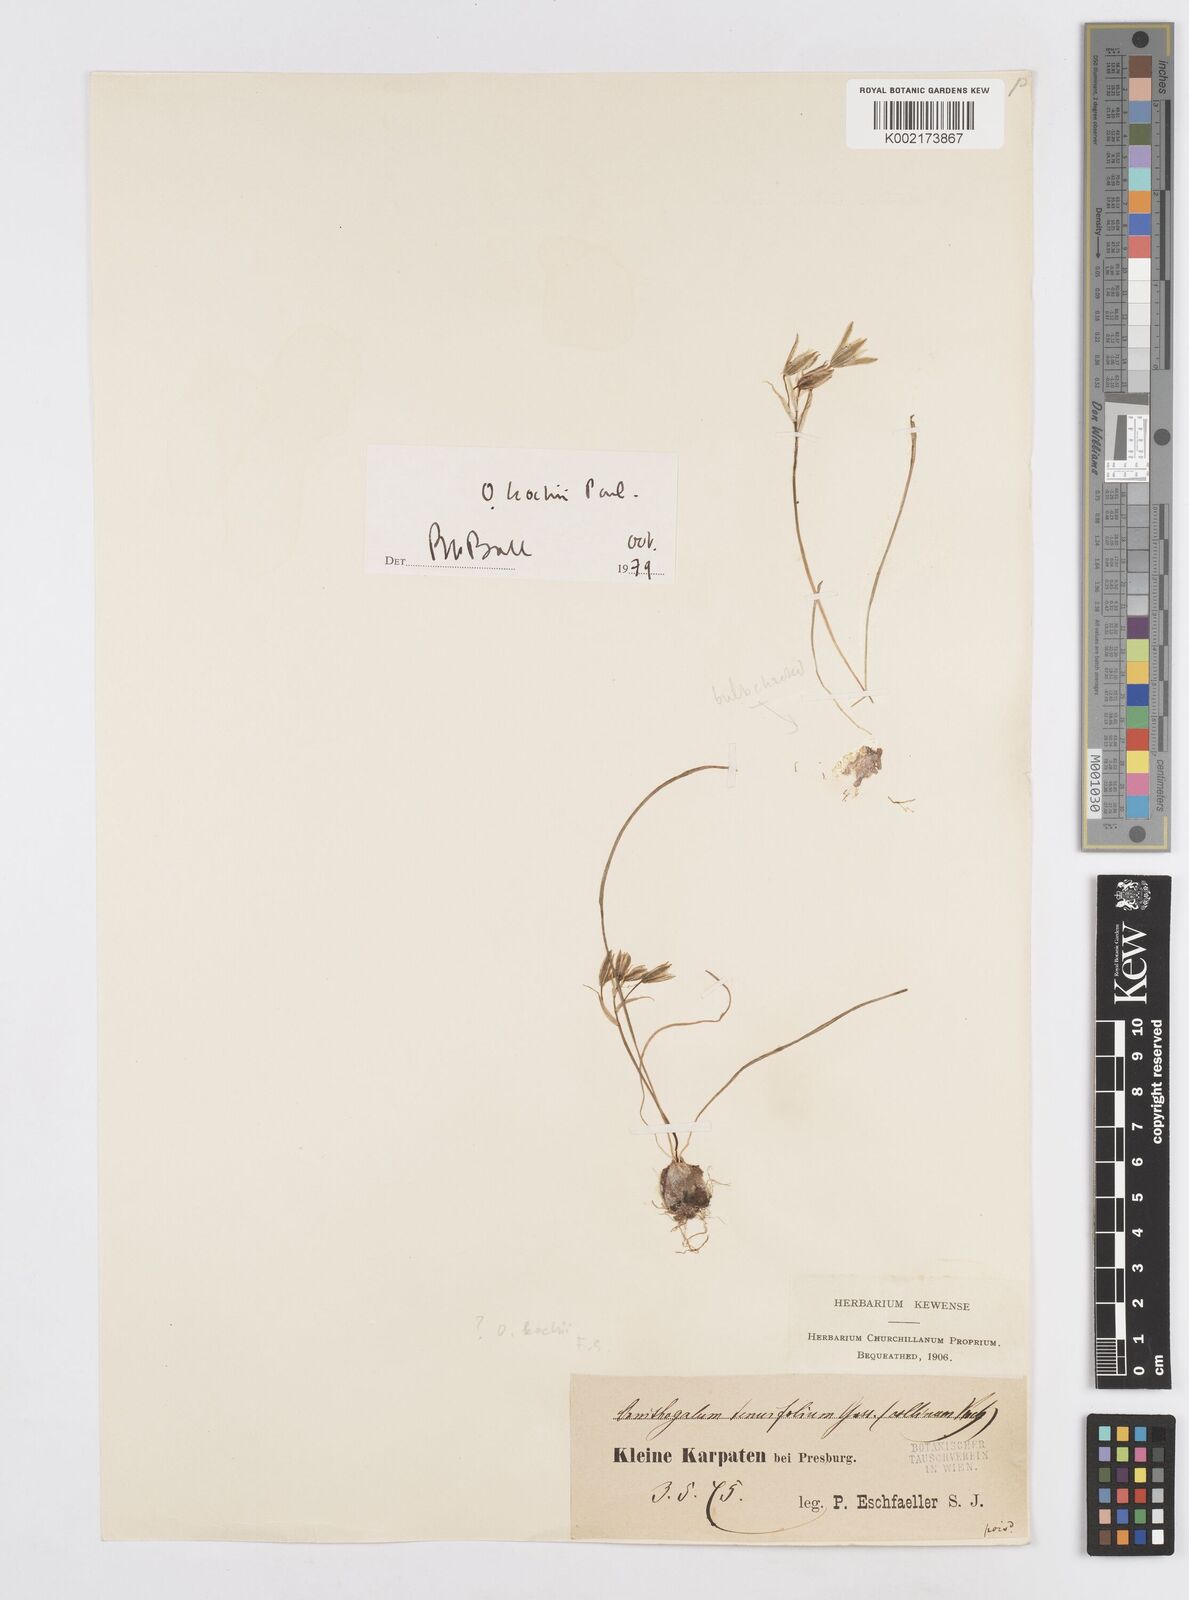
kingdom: Plantae
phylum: Tracheophyta
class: Liliopsida
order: Asparagales
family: Asparagaceae
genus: Ornithogalum
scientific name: Ornithogalum orthophyllum
